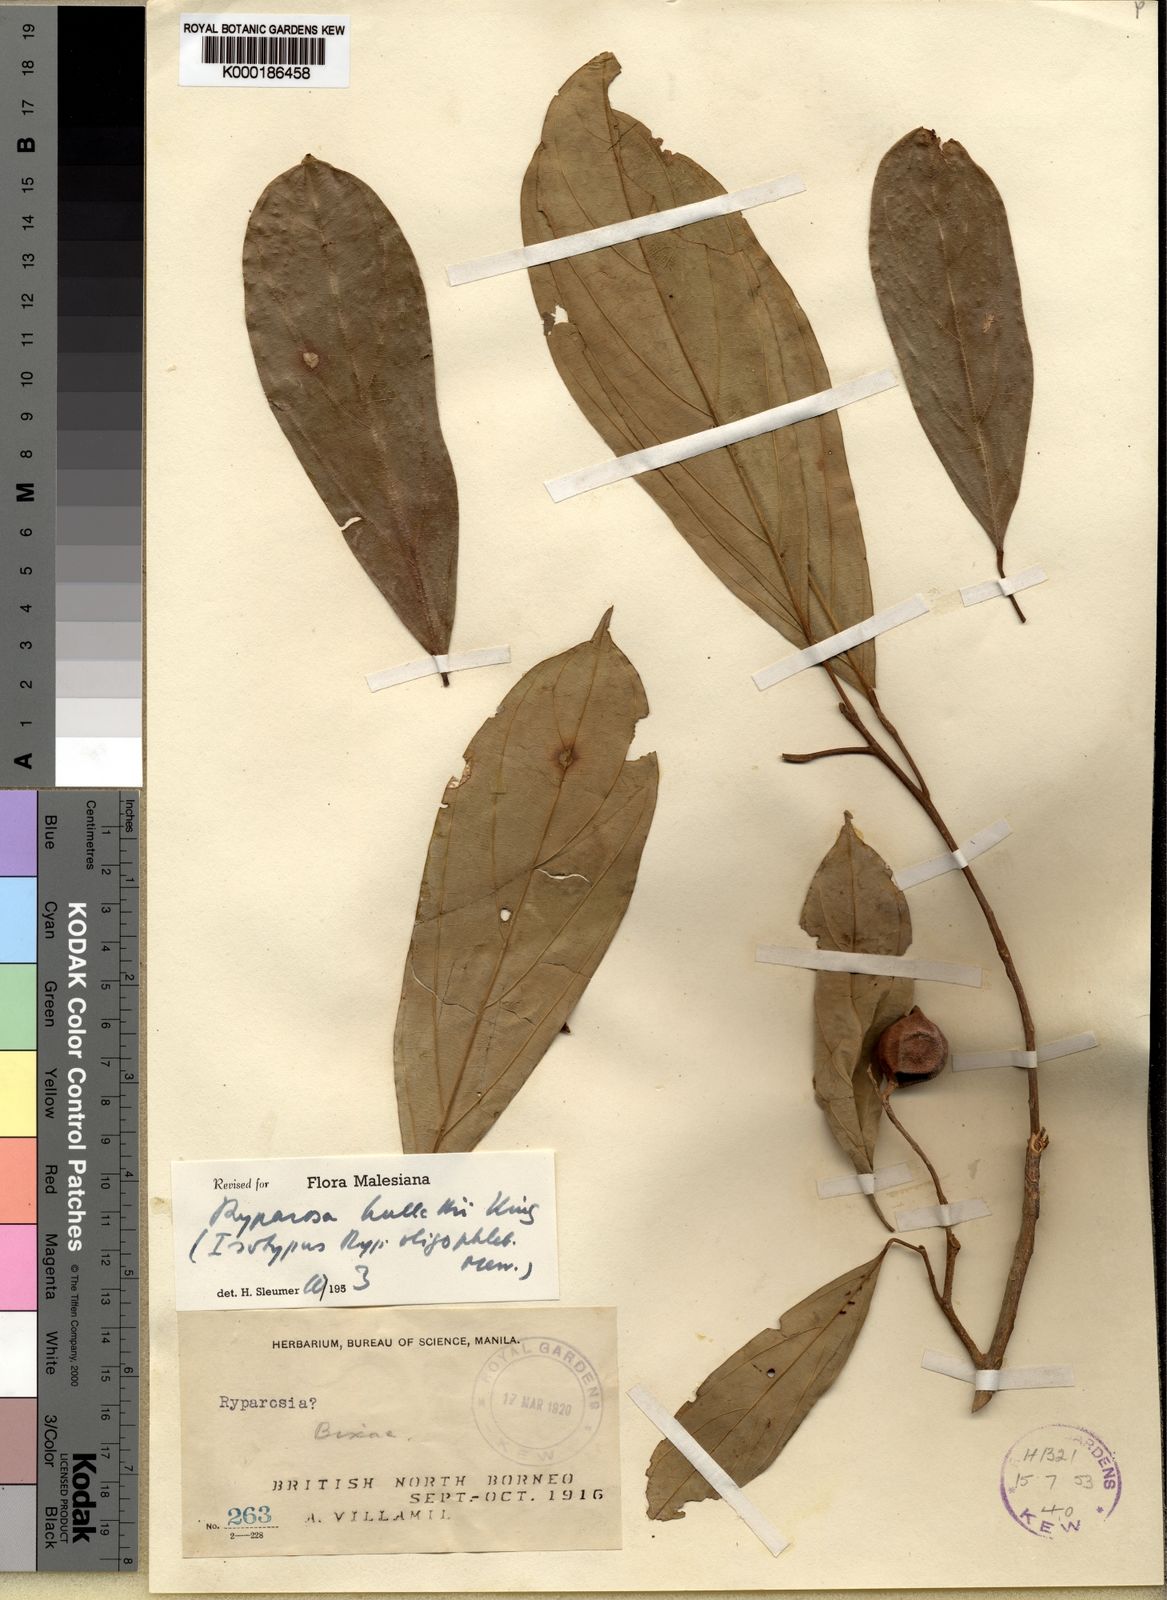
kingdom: Plantae
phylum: Tracheophyta
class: Magnoliopsida
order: Malpighiales
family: Achariaceae
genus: Ryparosa
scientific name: Ryparosa hullettii
